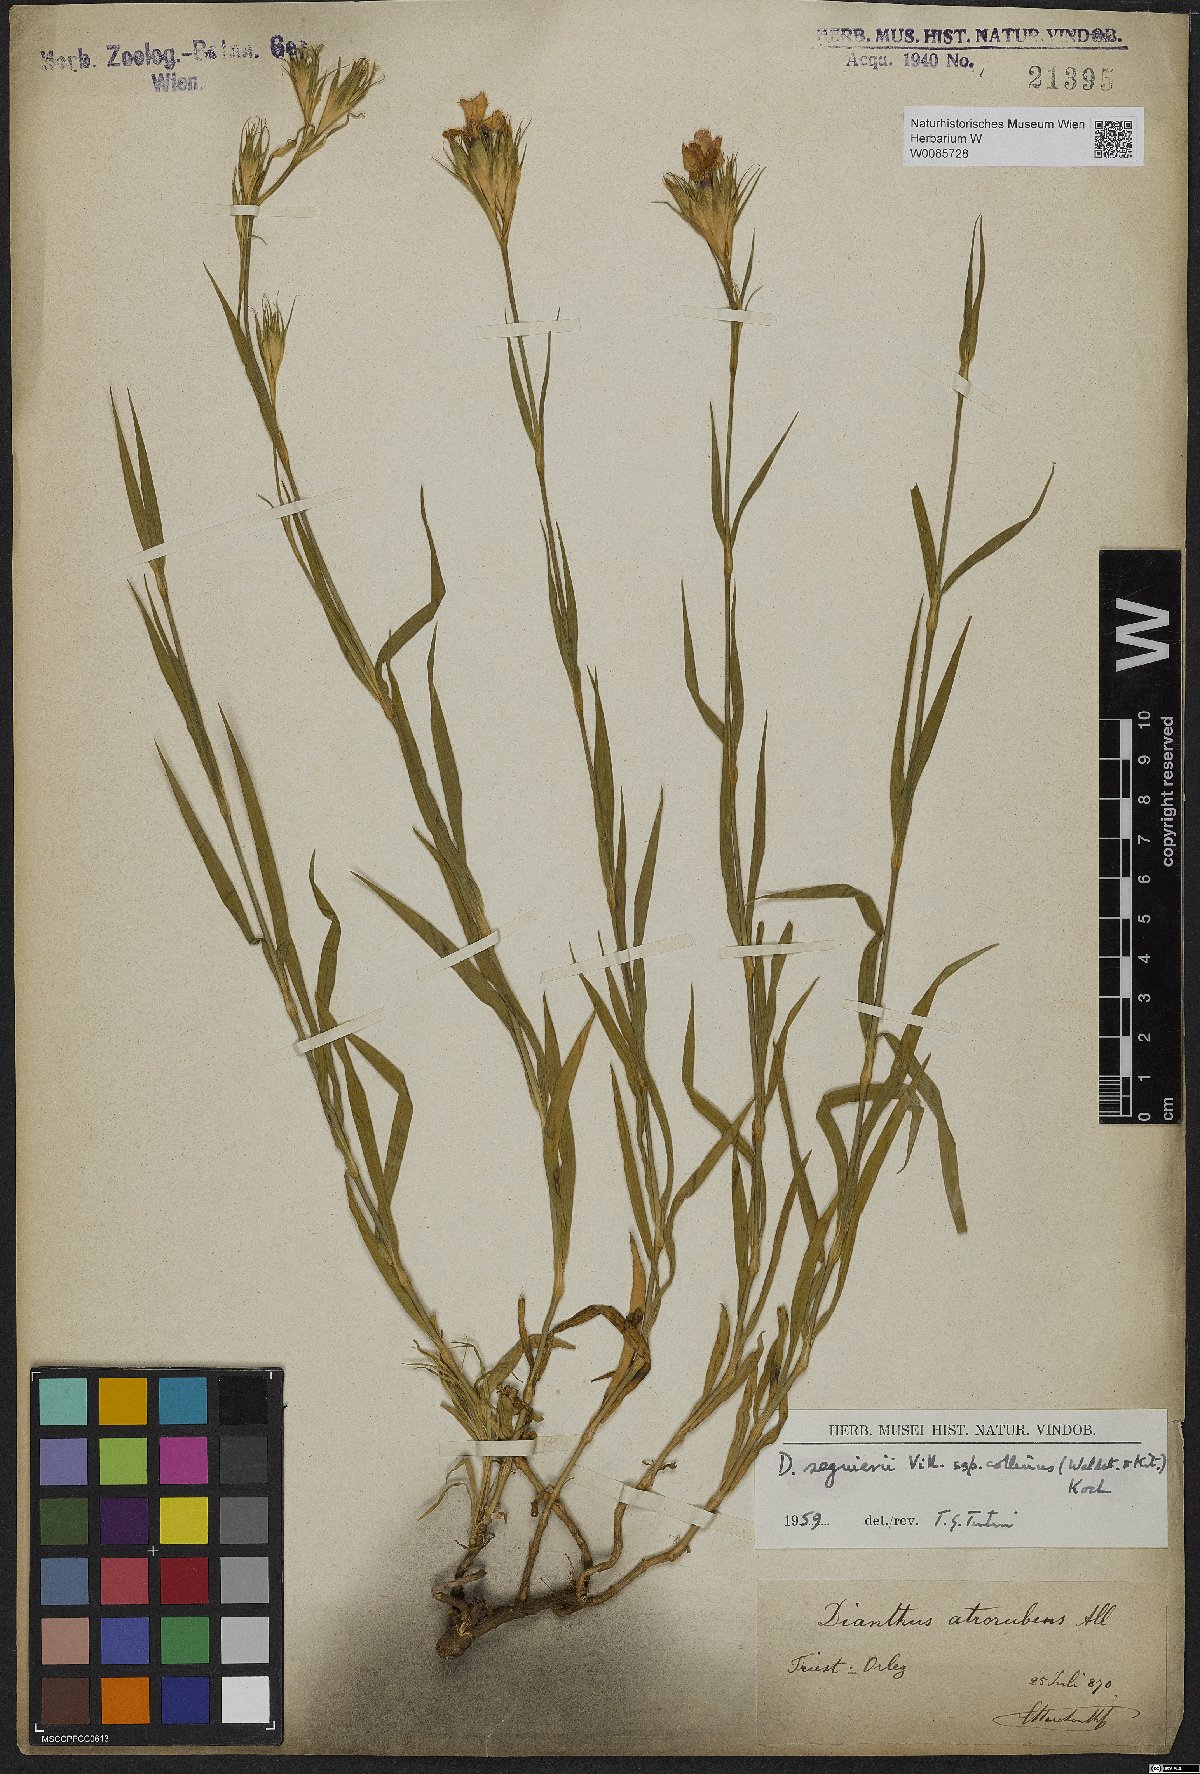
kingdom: Plantae
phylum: Tracheophyta
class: Magnoliopsida
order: Caryophyllales
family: Caryophyllaceae
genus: Dianthus
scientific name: Dianthus seguieri
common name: Ragged pink
